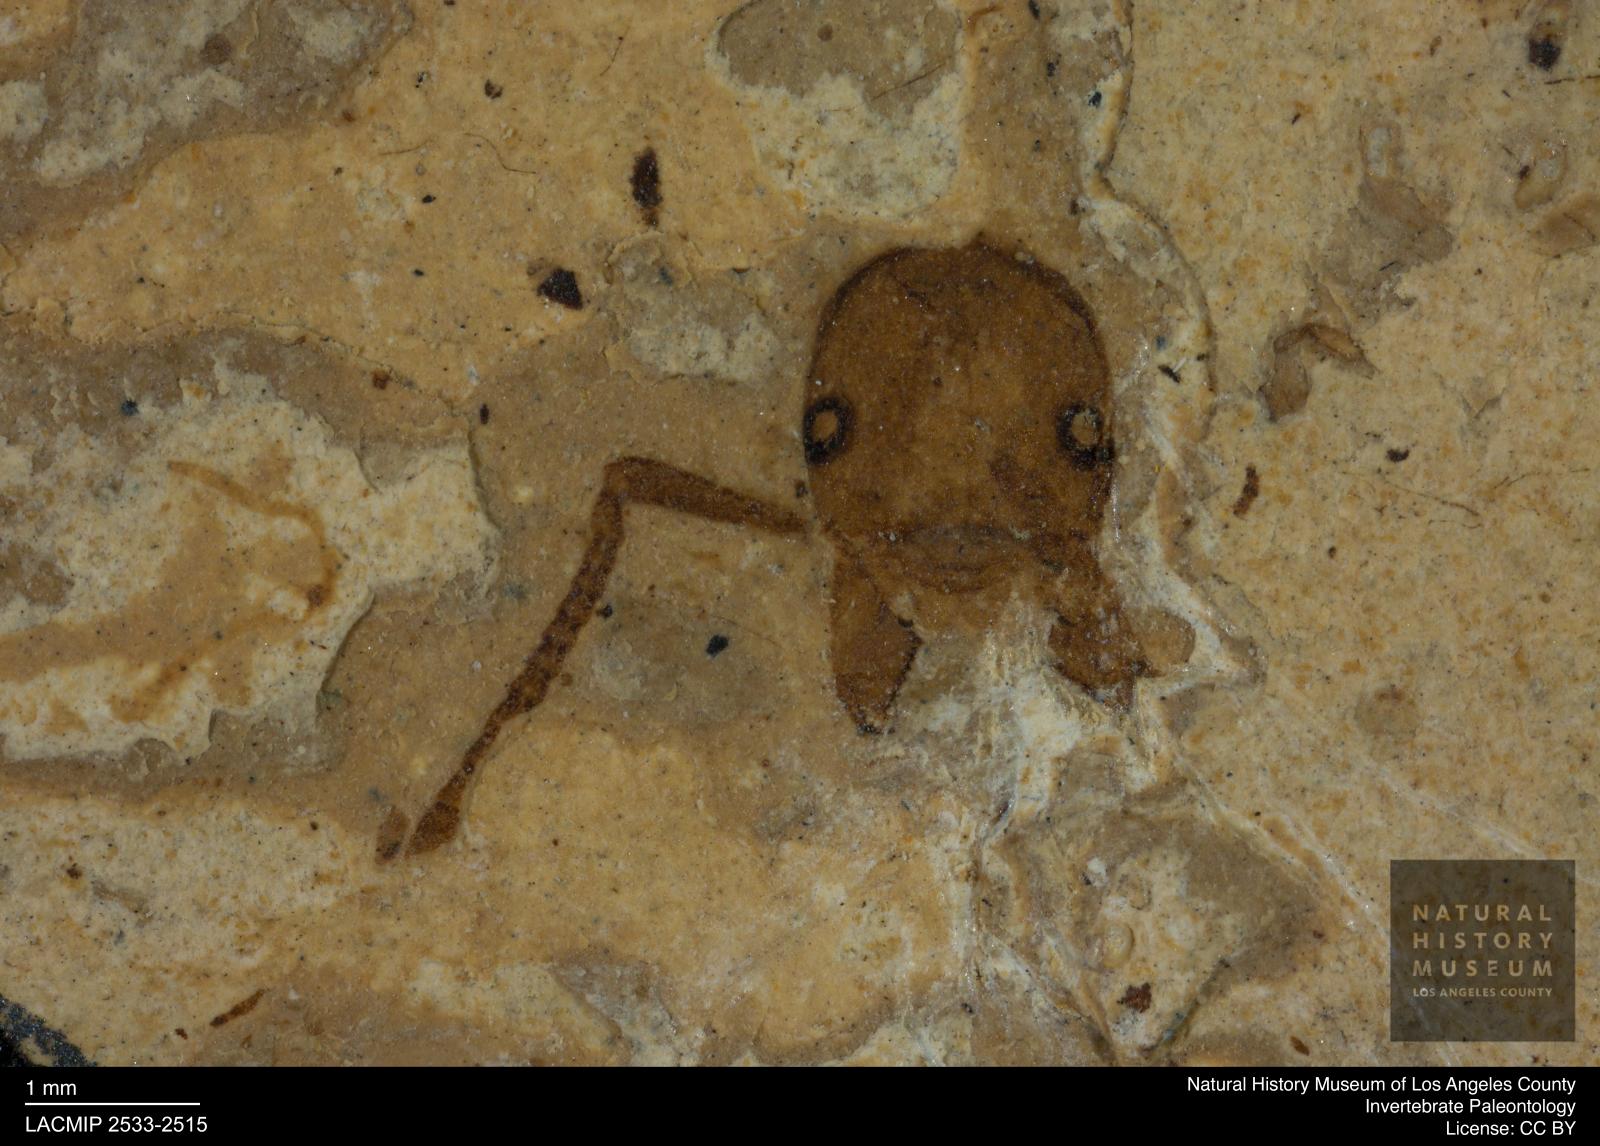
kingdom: Animalia
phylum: Arthropoda
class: Insecta
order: Hymenoptera
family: Formicidae
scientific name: Formicidae
